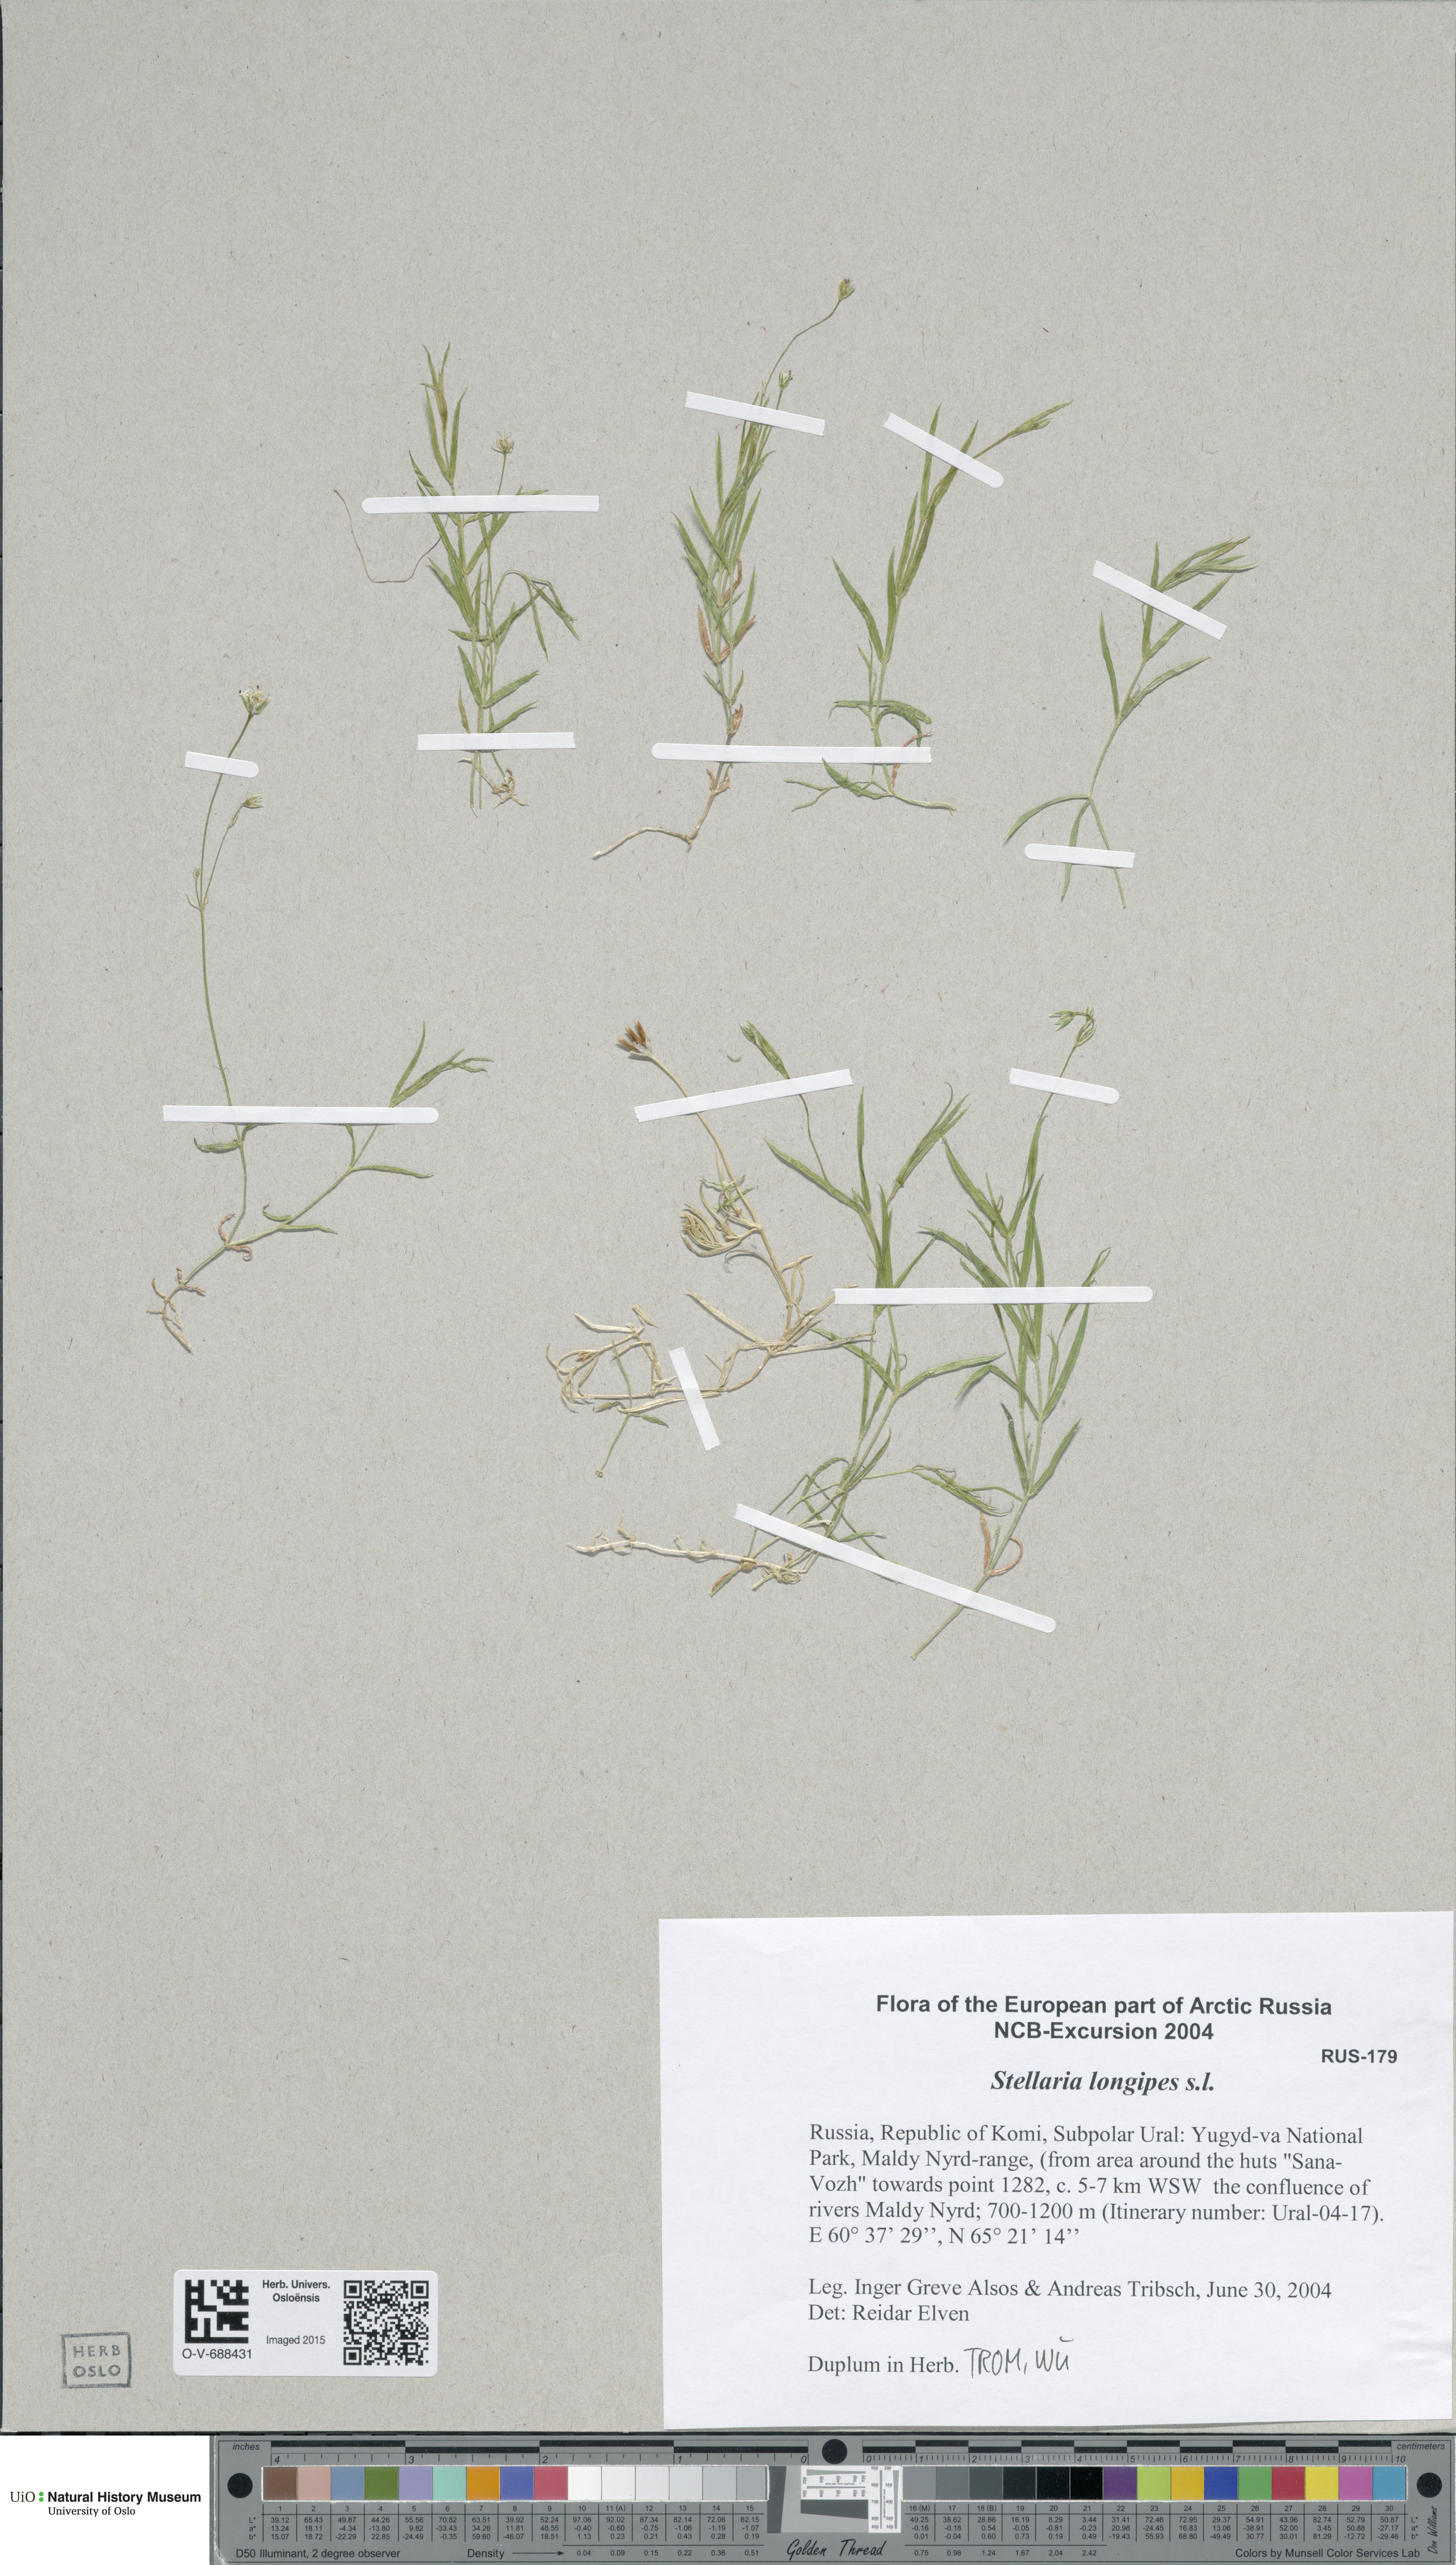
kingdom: Plantae
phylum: Tracheophyta
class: Magnoliopsida
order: Caryophyllales
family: Caryophyllaceae
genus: Stellaria
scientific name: Stellaria longipes
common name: Goldie's starwort
